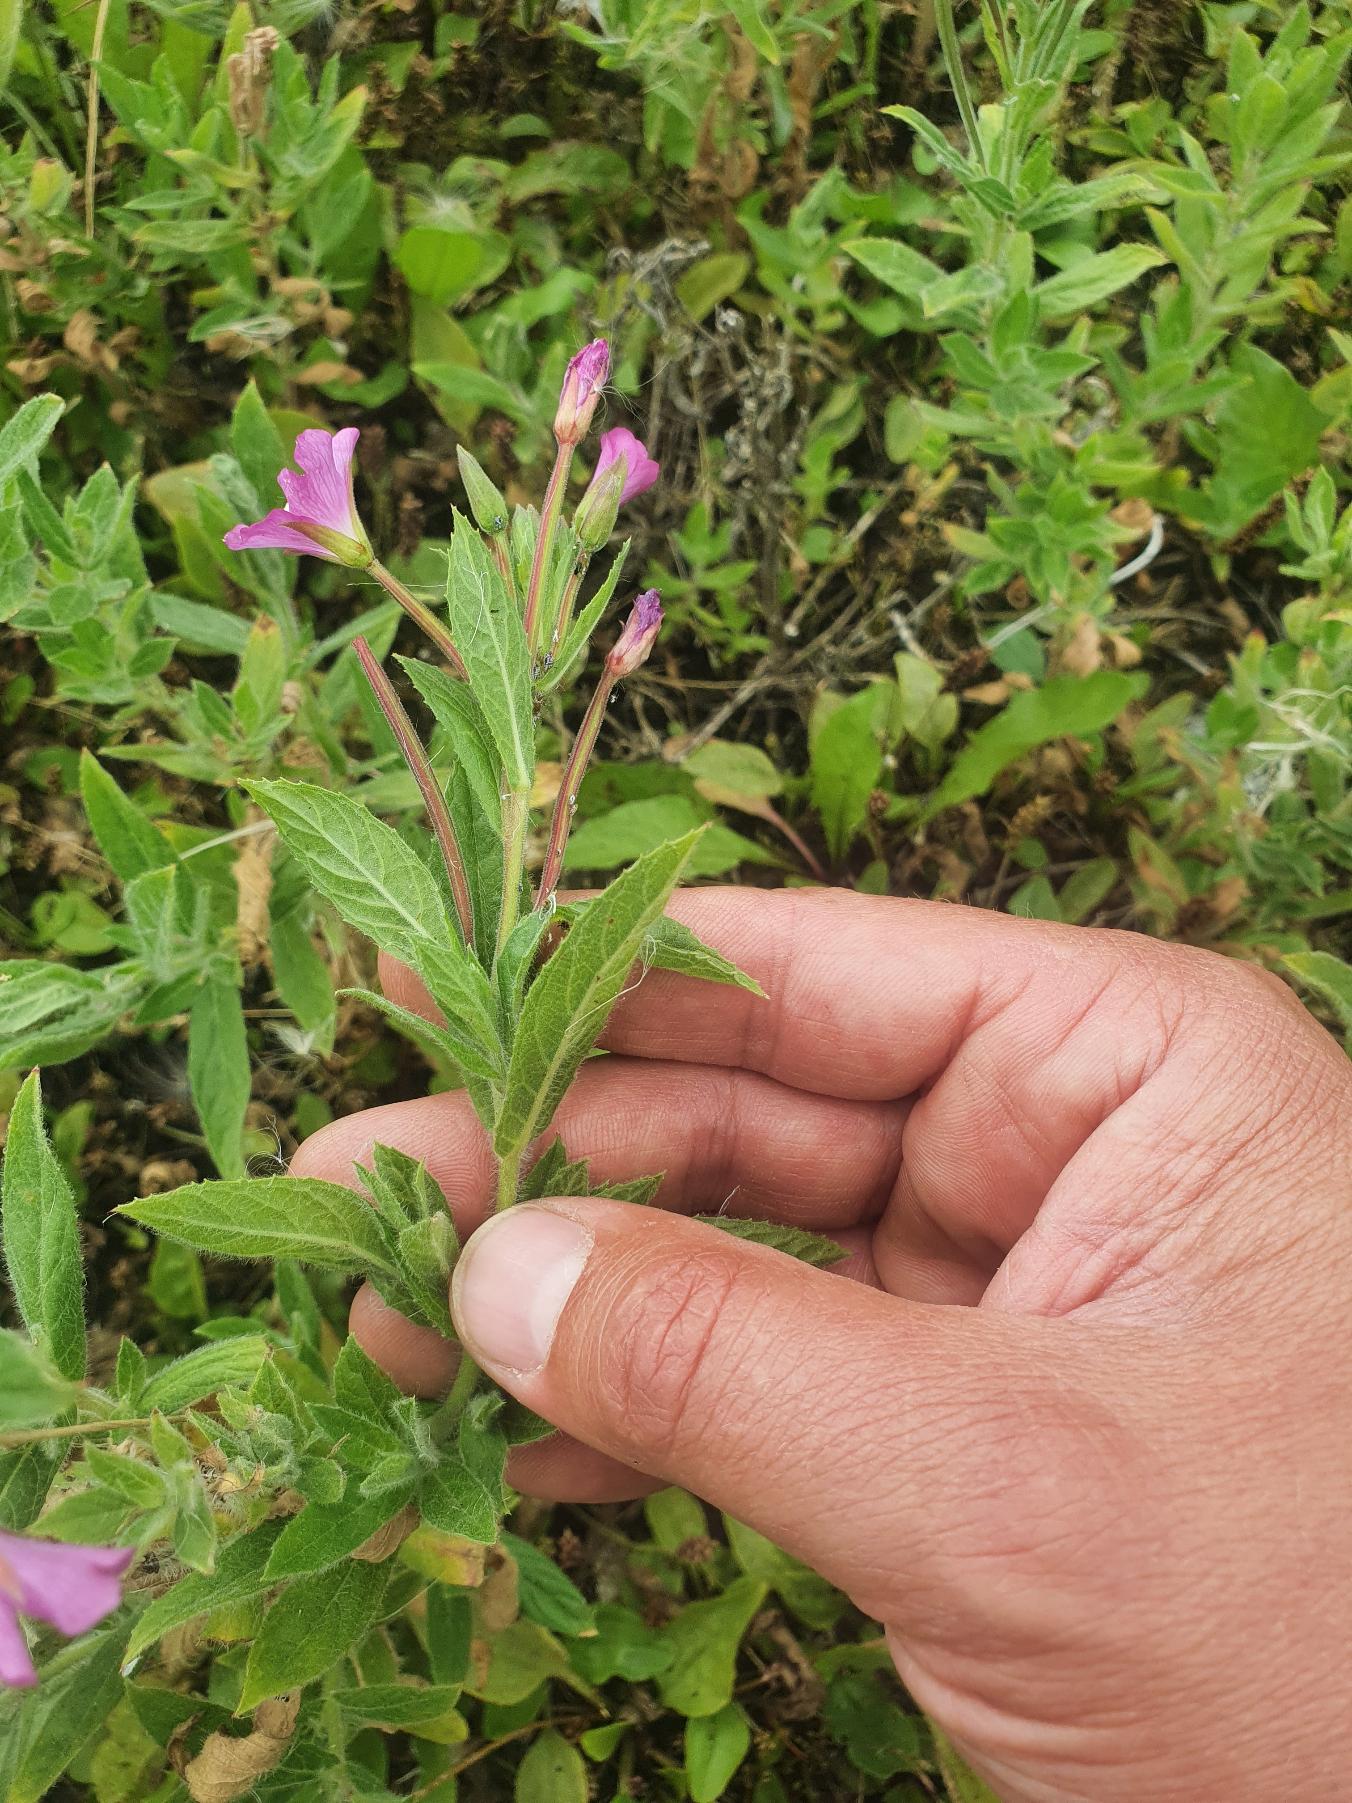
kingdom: Plantae
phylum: Tracheophyta
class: Magnoliopsida
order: Myrtales
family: Onagraceae
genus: Epilobium
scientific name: Epilobium hirsutum
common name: Lådden dueurt
